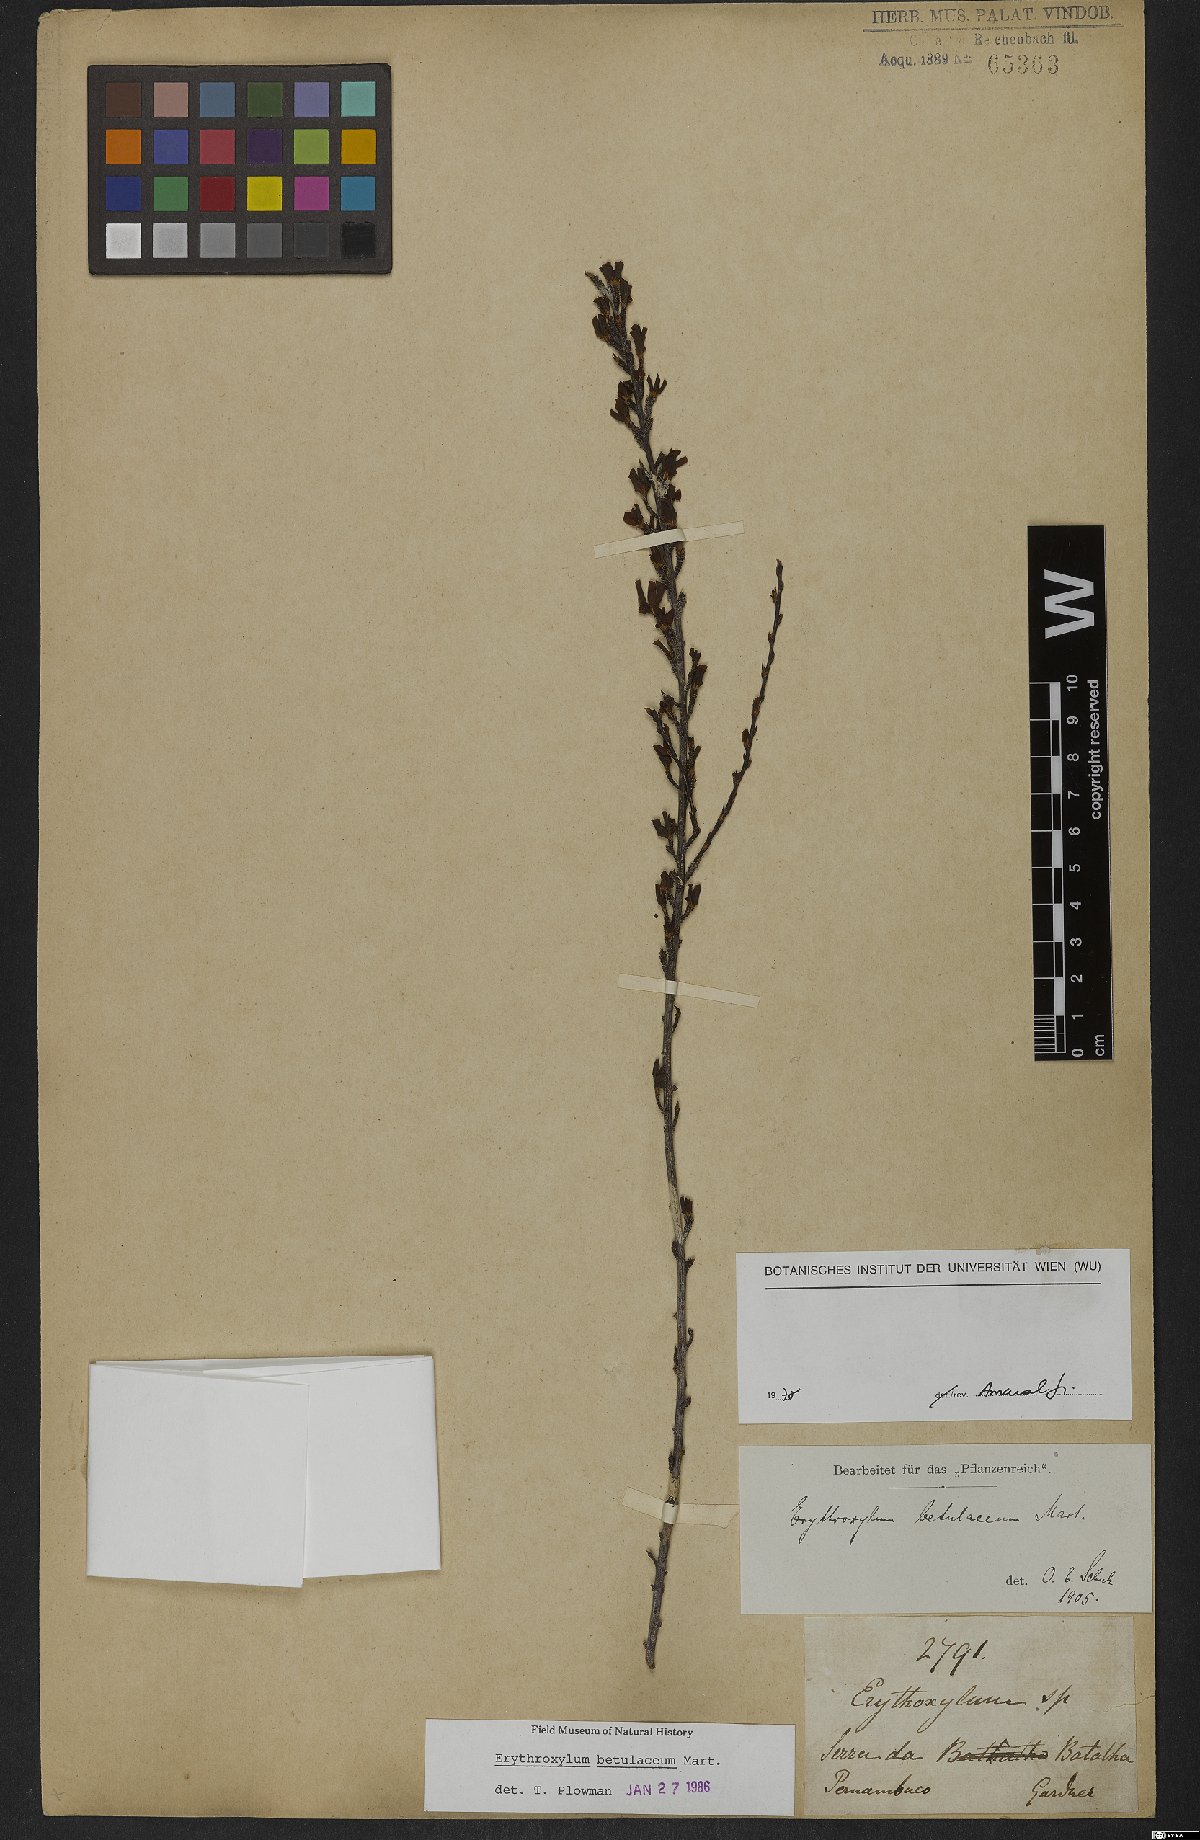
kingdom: Plantae
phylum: Tracheophyta
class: Magnoliopsida
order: Malpighiales
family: Erythroxylaceae
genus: Erythroxylum
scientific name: Erythroxylum betulaceum
